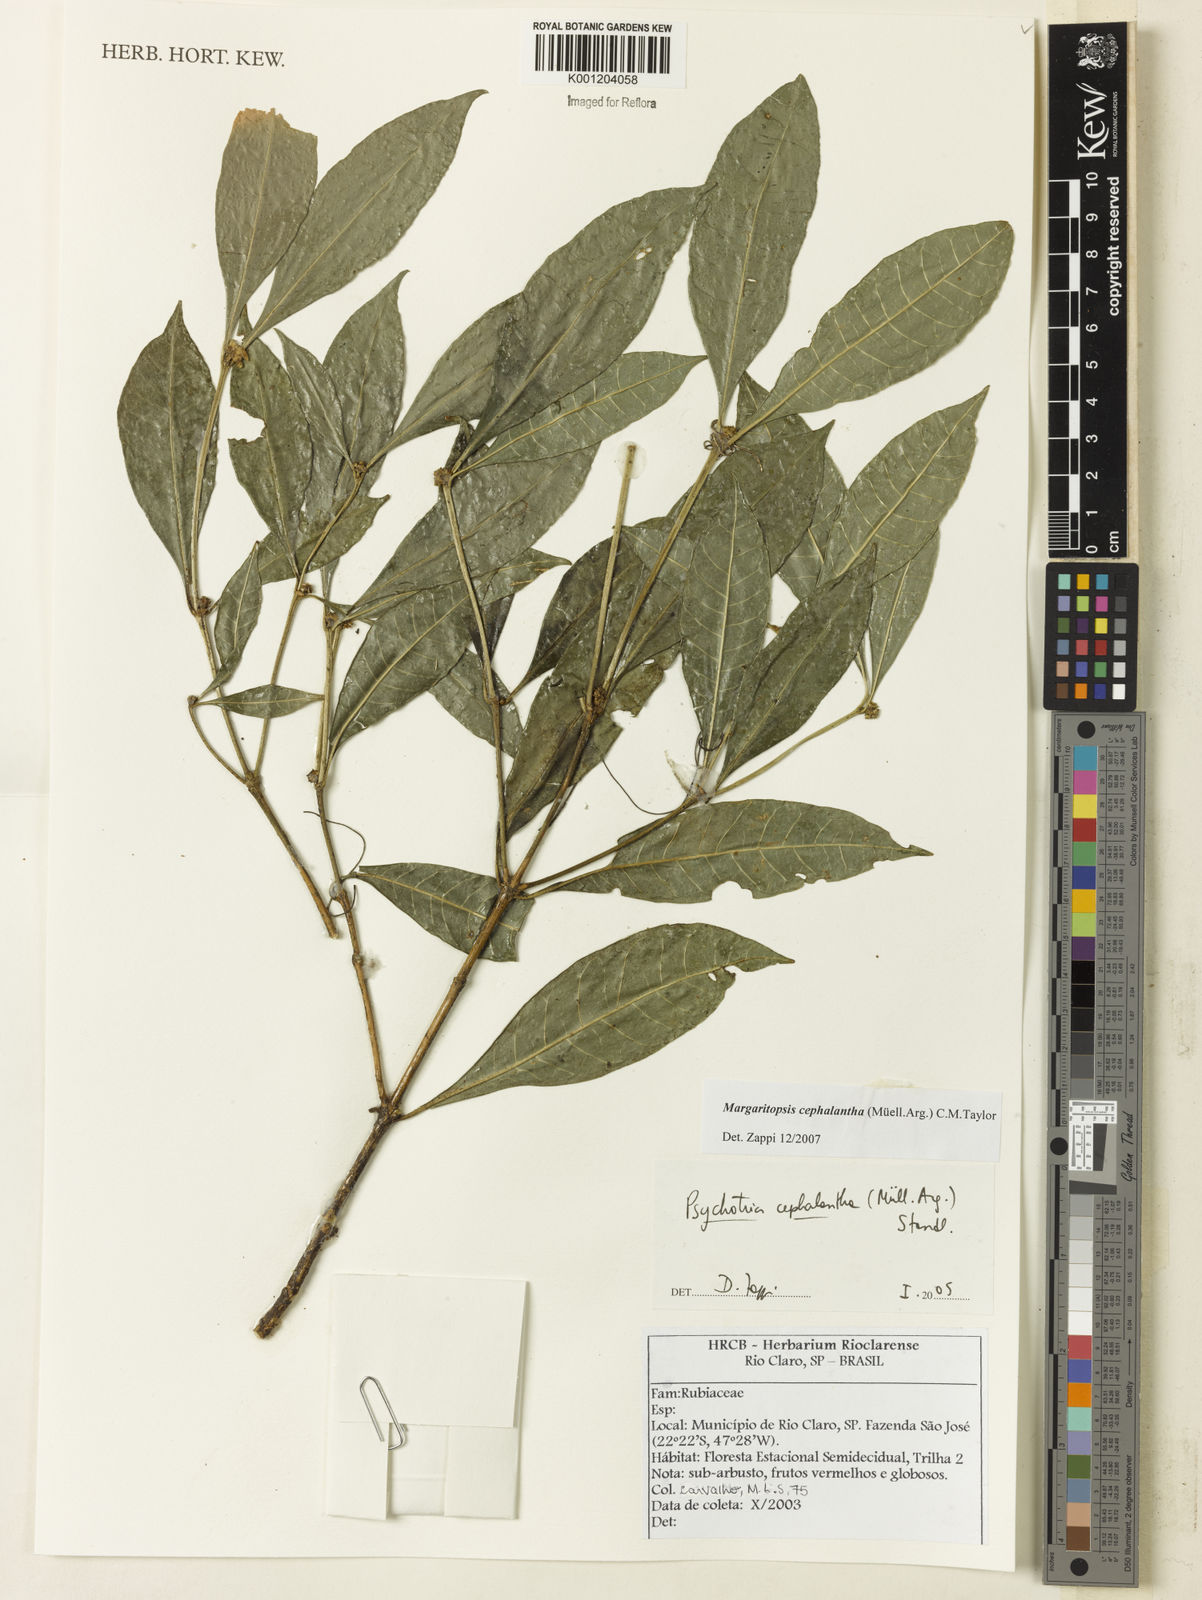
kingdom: Plantae
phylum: Tracheophyta
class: Magnoliopsida
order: Gentianales
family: Rubiaceae
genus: Eumachia
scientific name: Eumachia
